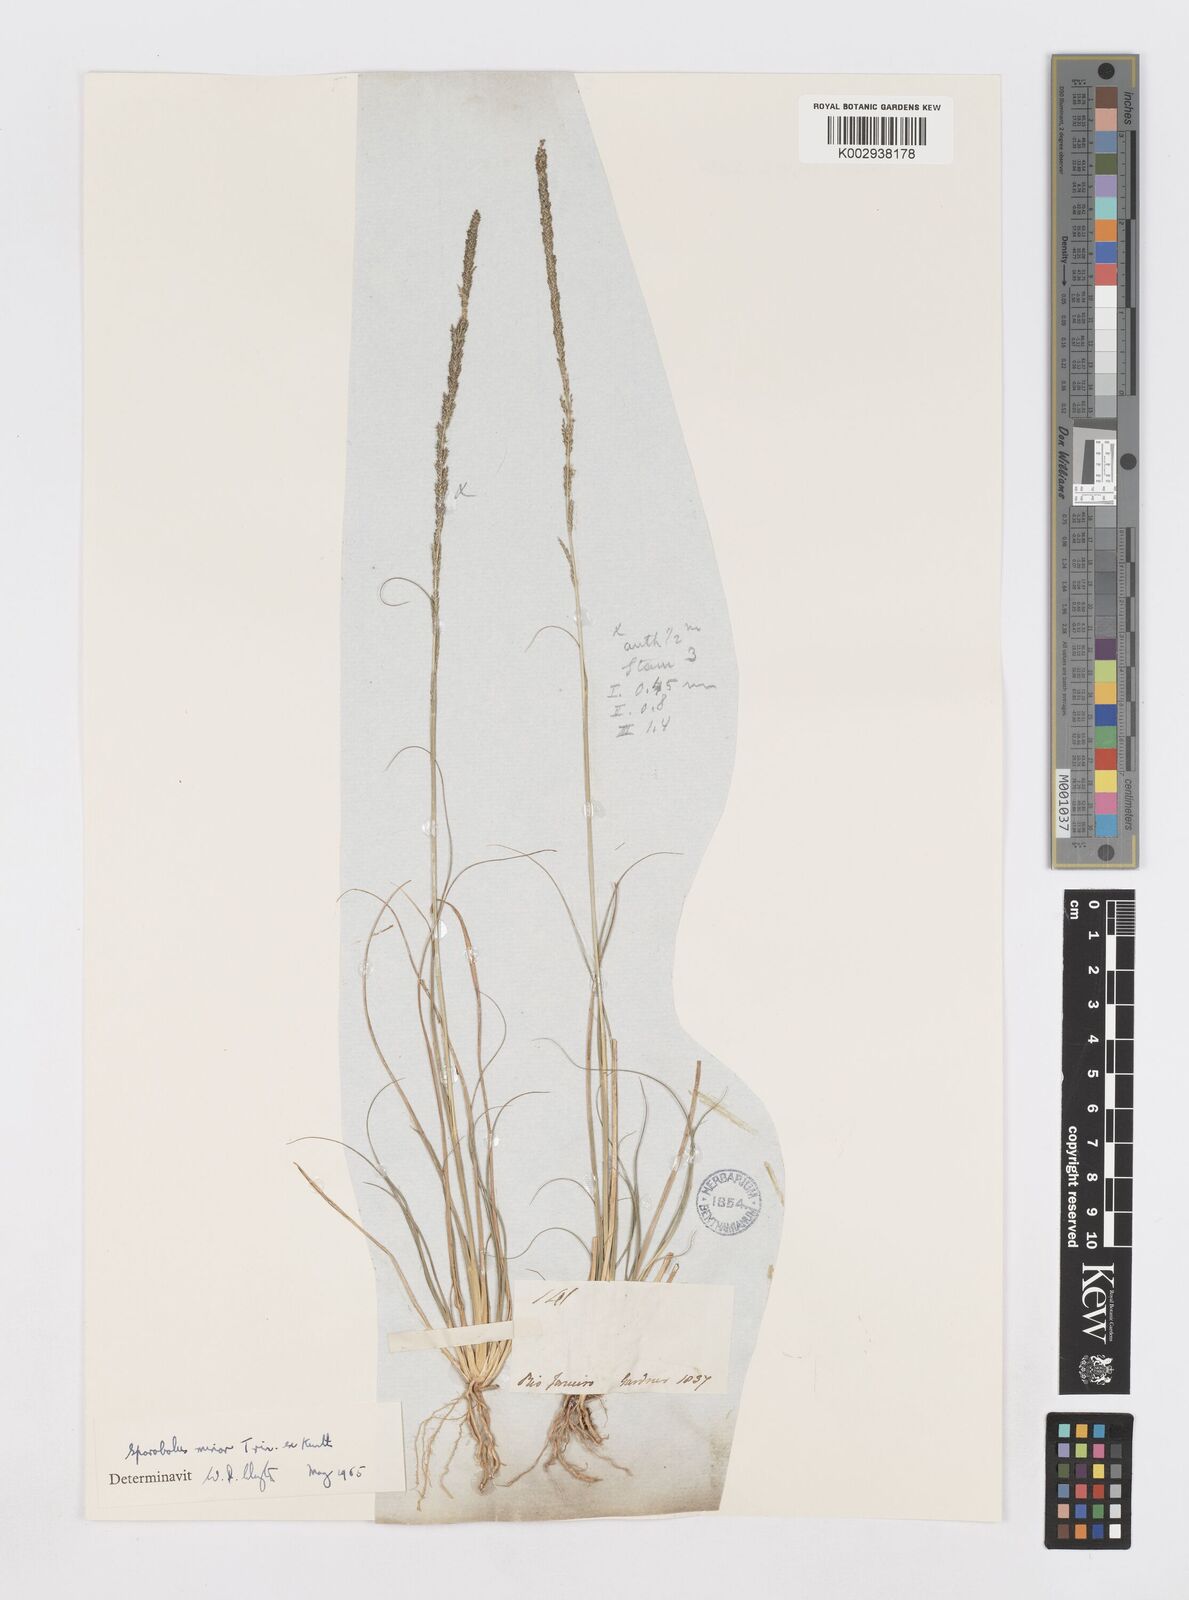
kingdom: Plantae
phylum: Tracheophyta
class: Liliopsida
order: Poales
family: Poaceae
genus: Sporobolus
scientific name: Sporobolus indicus
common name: Smut grass
